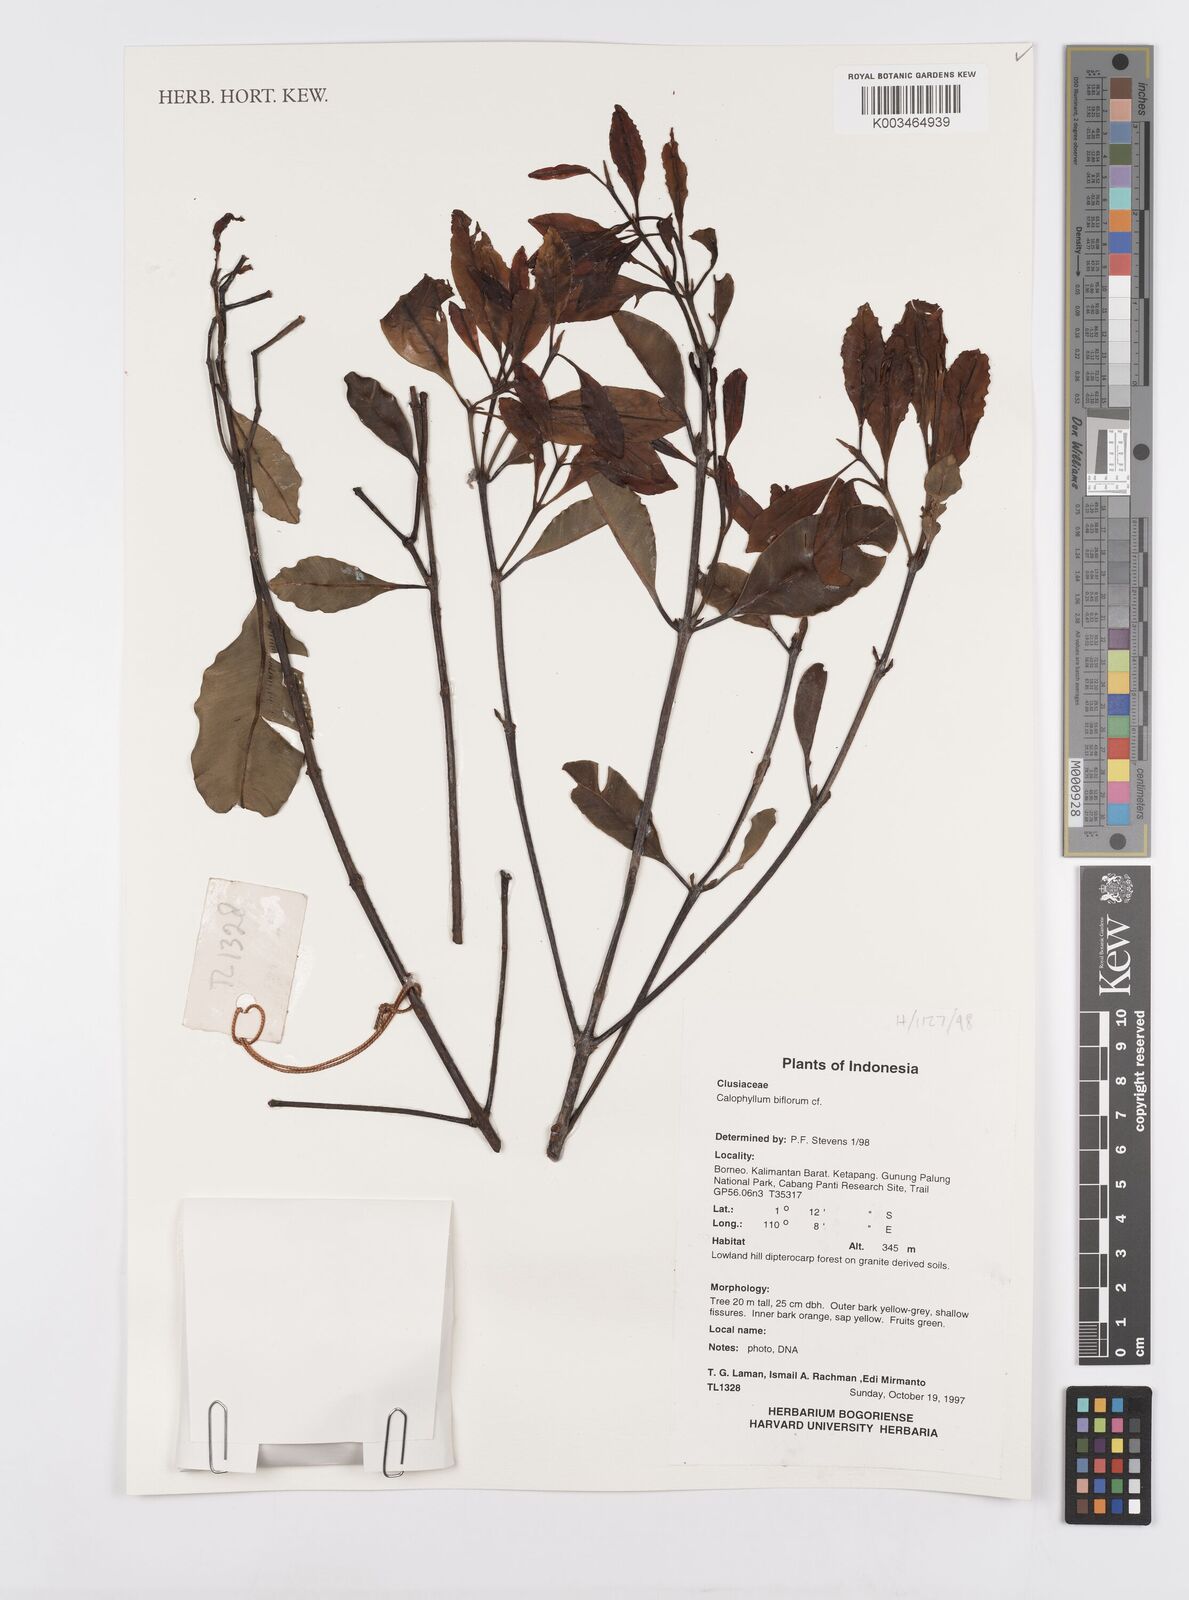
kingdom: Plantae
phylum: Tracheophyta
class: Magnoliopsida
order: Malpighiales
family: Calophyllaceae
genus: Calophyllum
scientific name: Calophyllum biflorum
